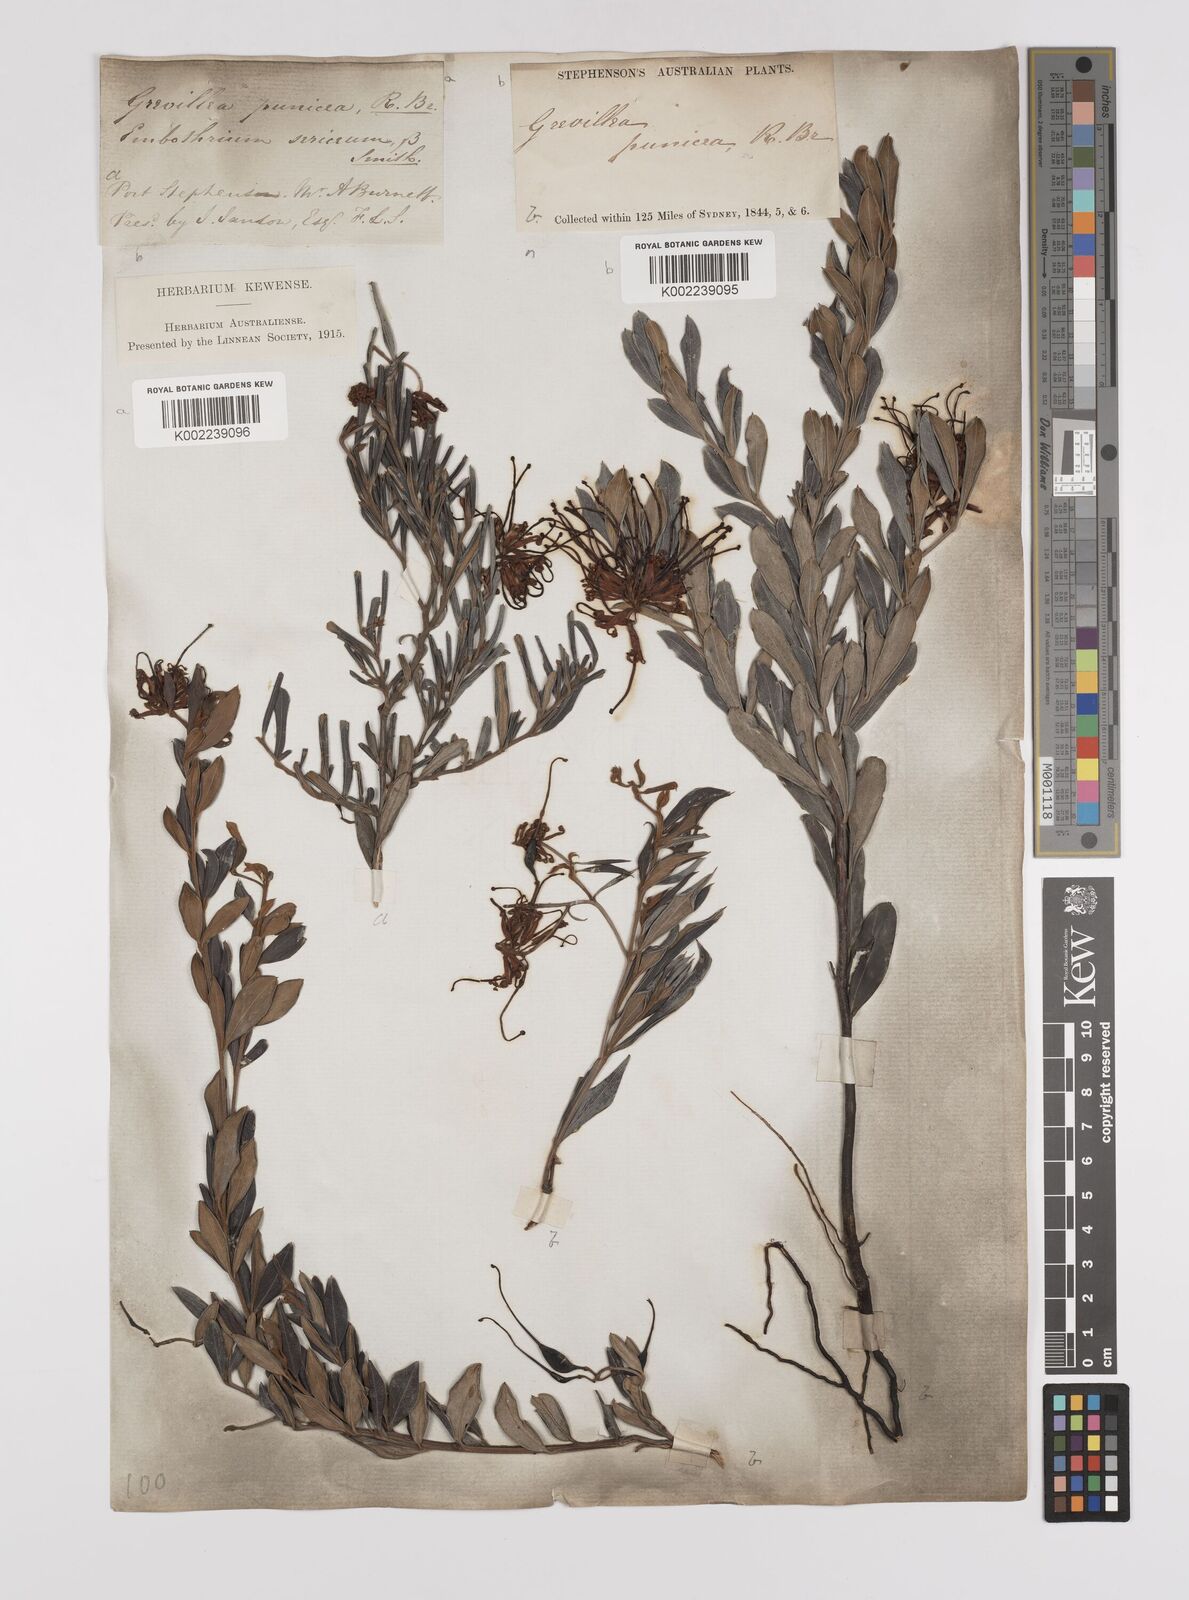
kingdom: Plantae
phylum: Tracheophyta
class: Magnoliopsida
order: Proteales
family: Proteaceae
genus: Grevillea
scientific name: Grevillea speciosa
